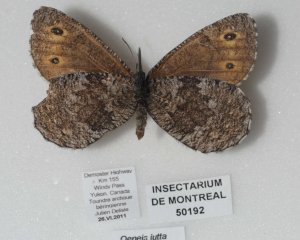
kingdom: Animalia
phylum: Arthropoda
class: Insecta
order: Lepidoptera
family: Nymphalidae
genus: Oeneis
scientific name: Oeneis jutta
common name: Jutta Arctic
